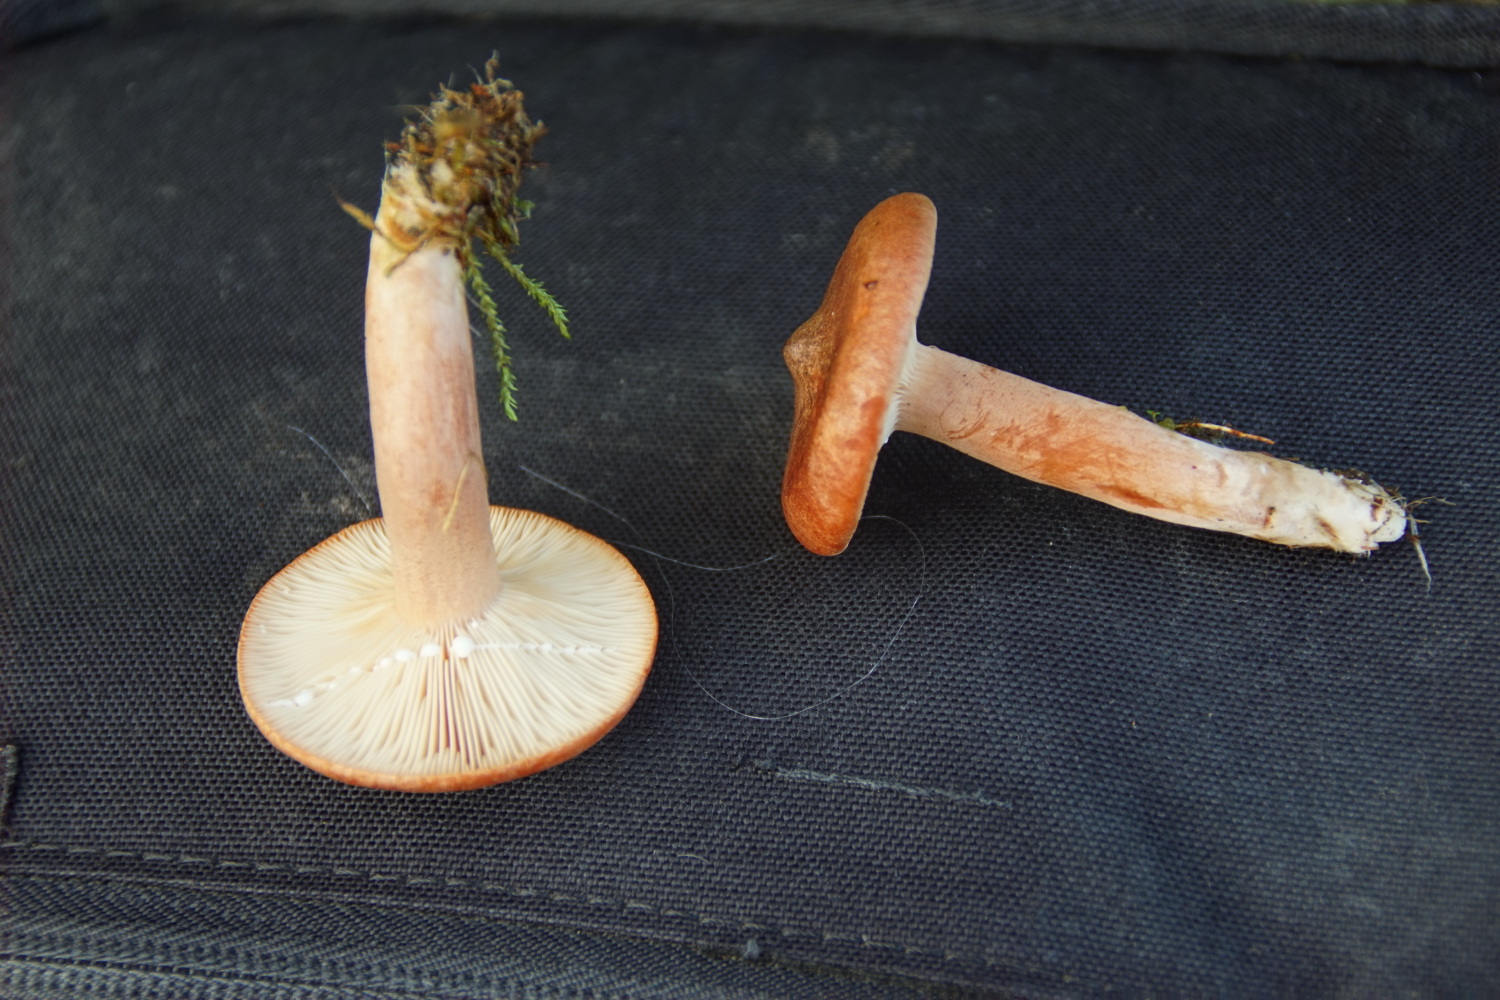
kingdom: Fungi
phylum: Basidiomycota
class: Agaricomycetes
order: Russulales
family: Russulaceae
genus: Lactarius
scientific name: Lactarius rufus
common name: rødbrun mælkehat
